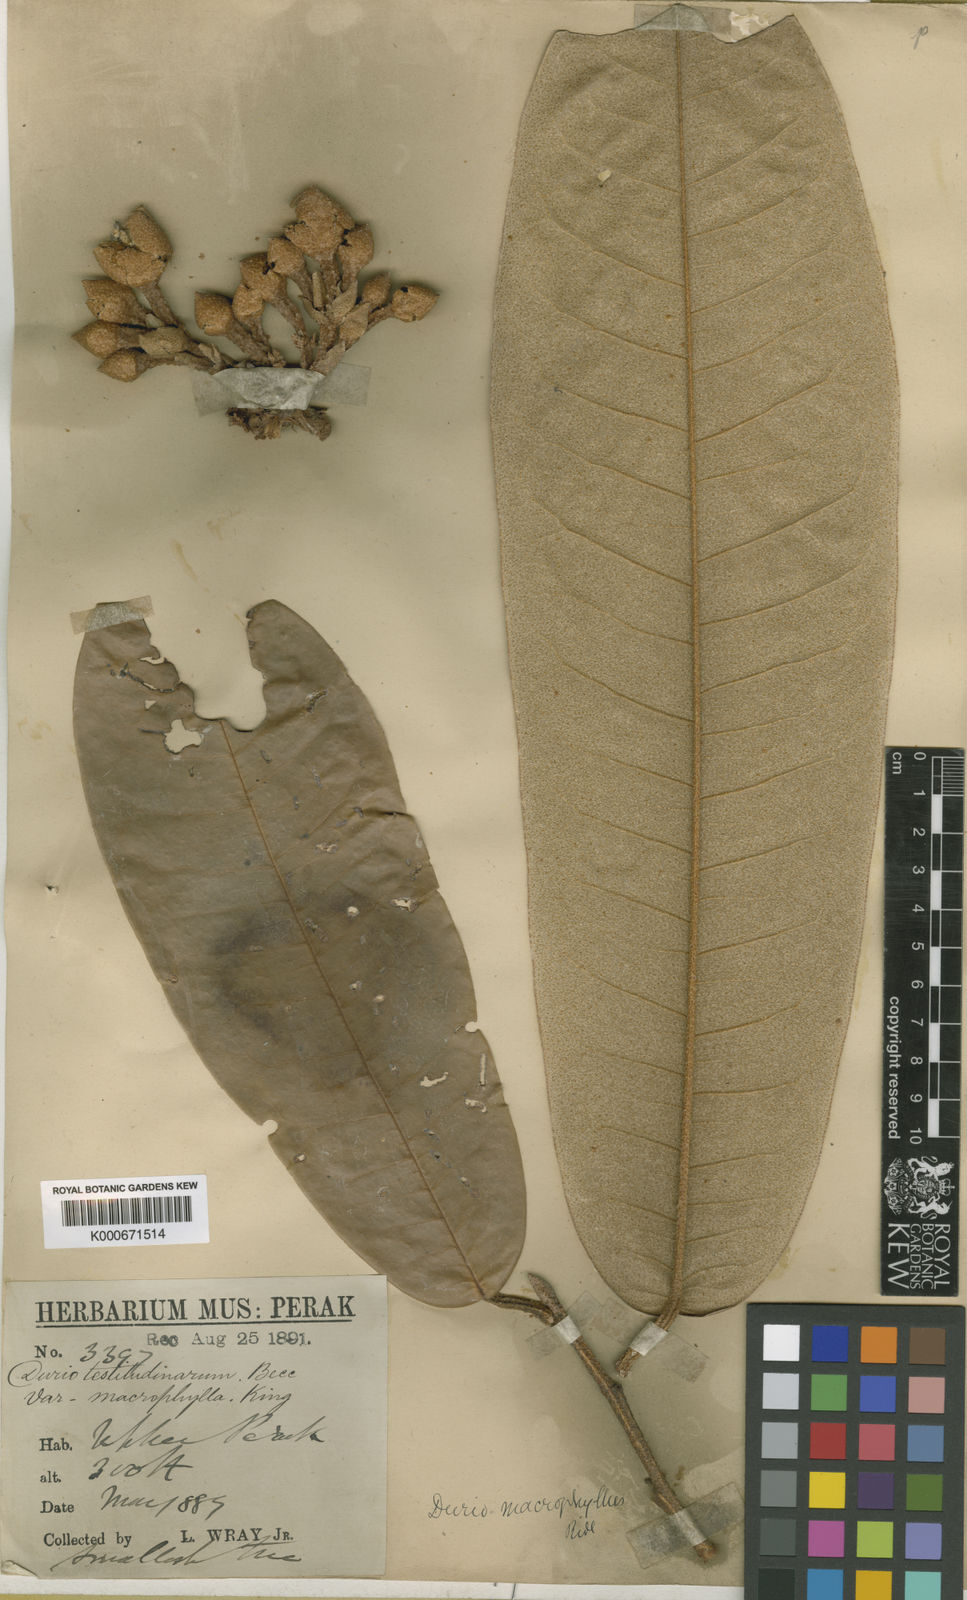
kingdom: Plantae
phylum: Tracheophyta
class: Magnoliopsida
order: Malvales
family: Malvaceae
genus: Durio
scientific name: Durio macrophyllus
